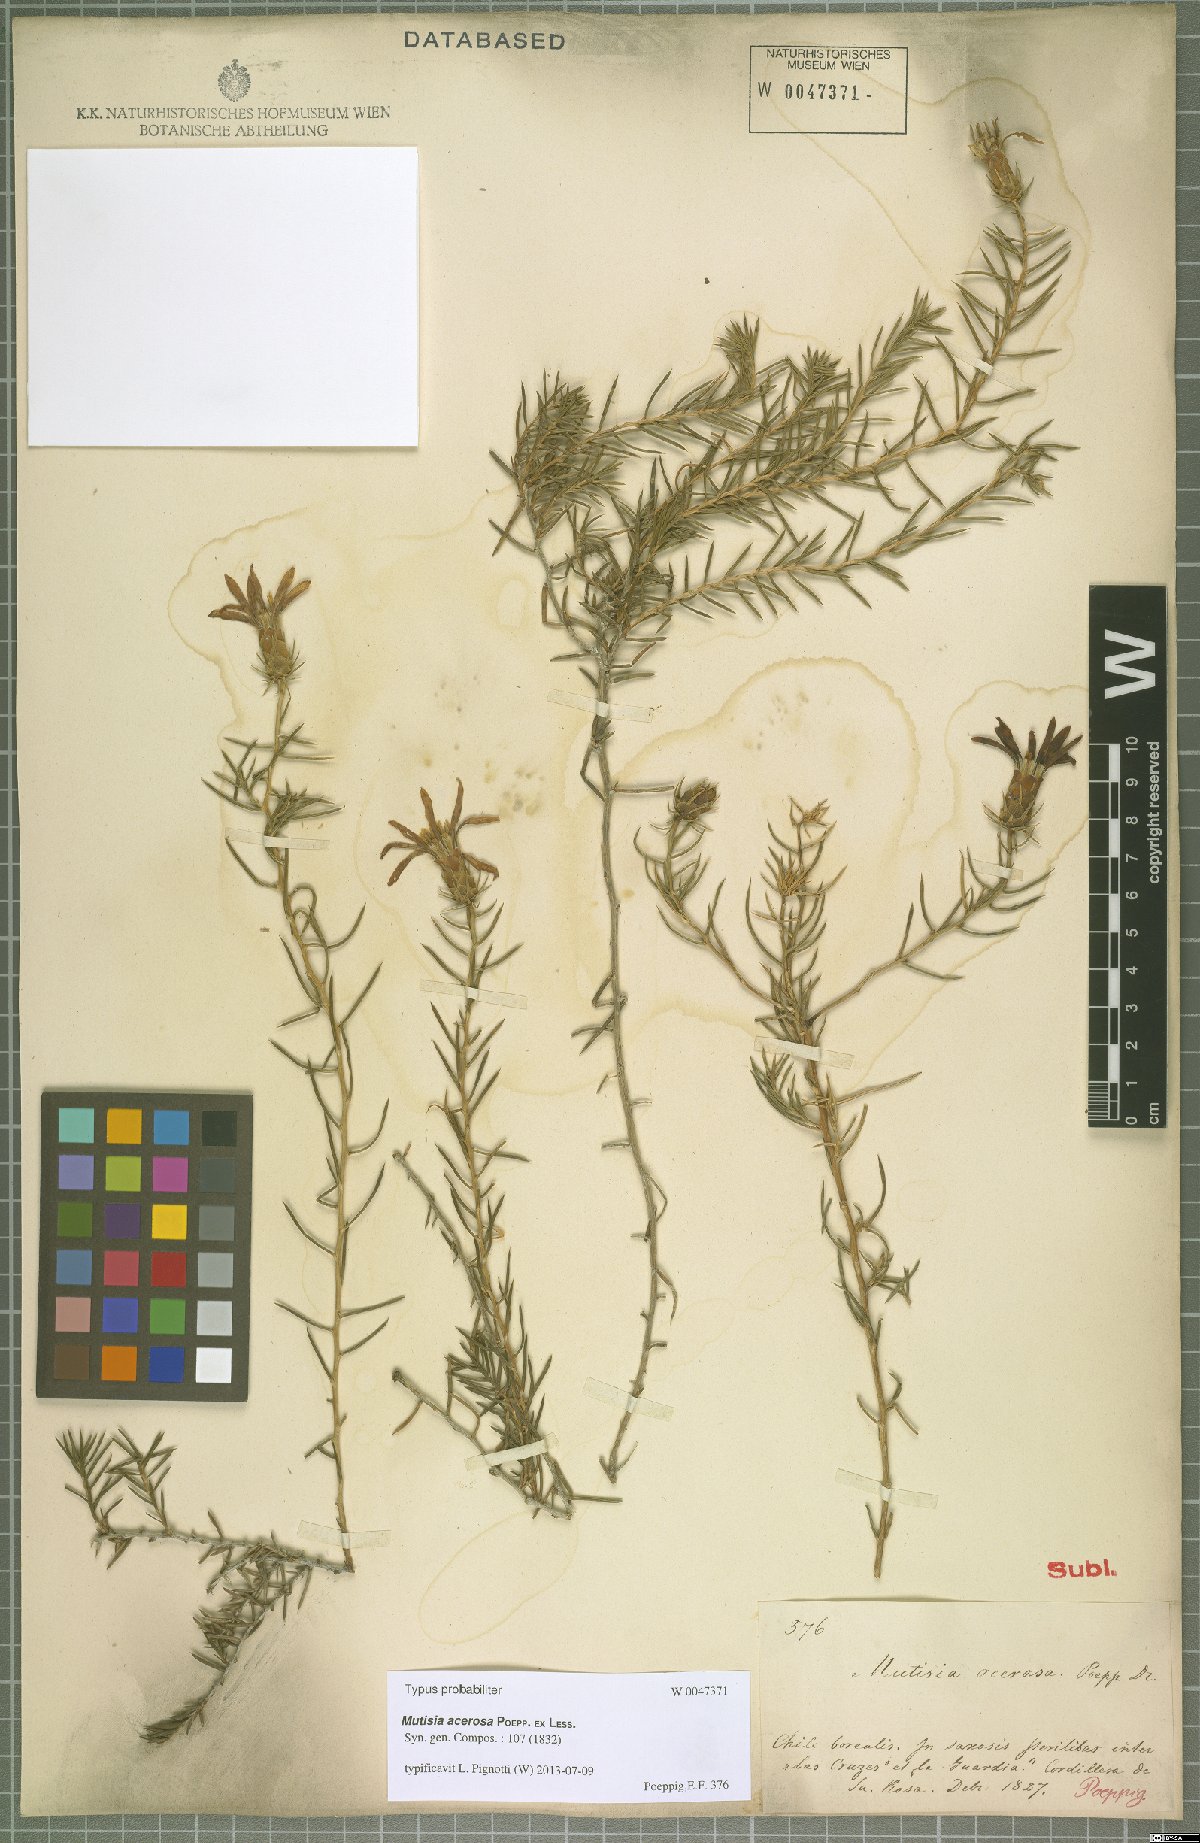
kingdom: Plantae
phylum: Tracheophyta
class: Magnoliopsida
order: Asterales
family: Asteraceae
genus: Mutisia
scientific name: Mutisia acerosa
